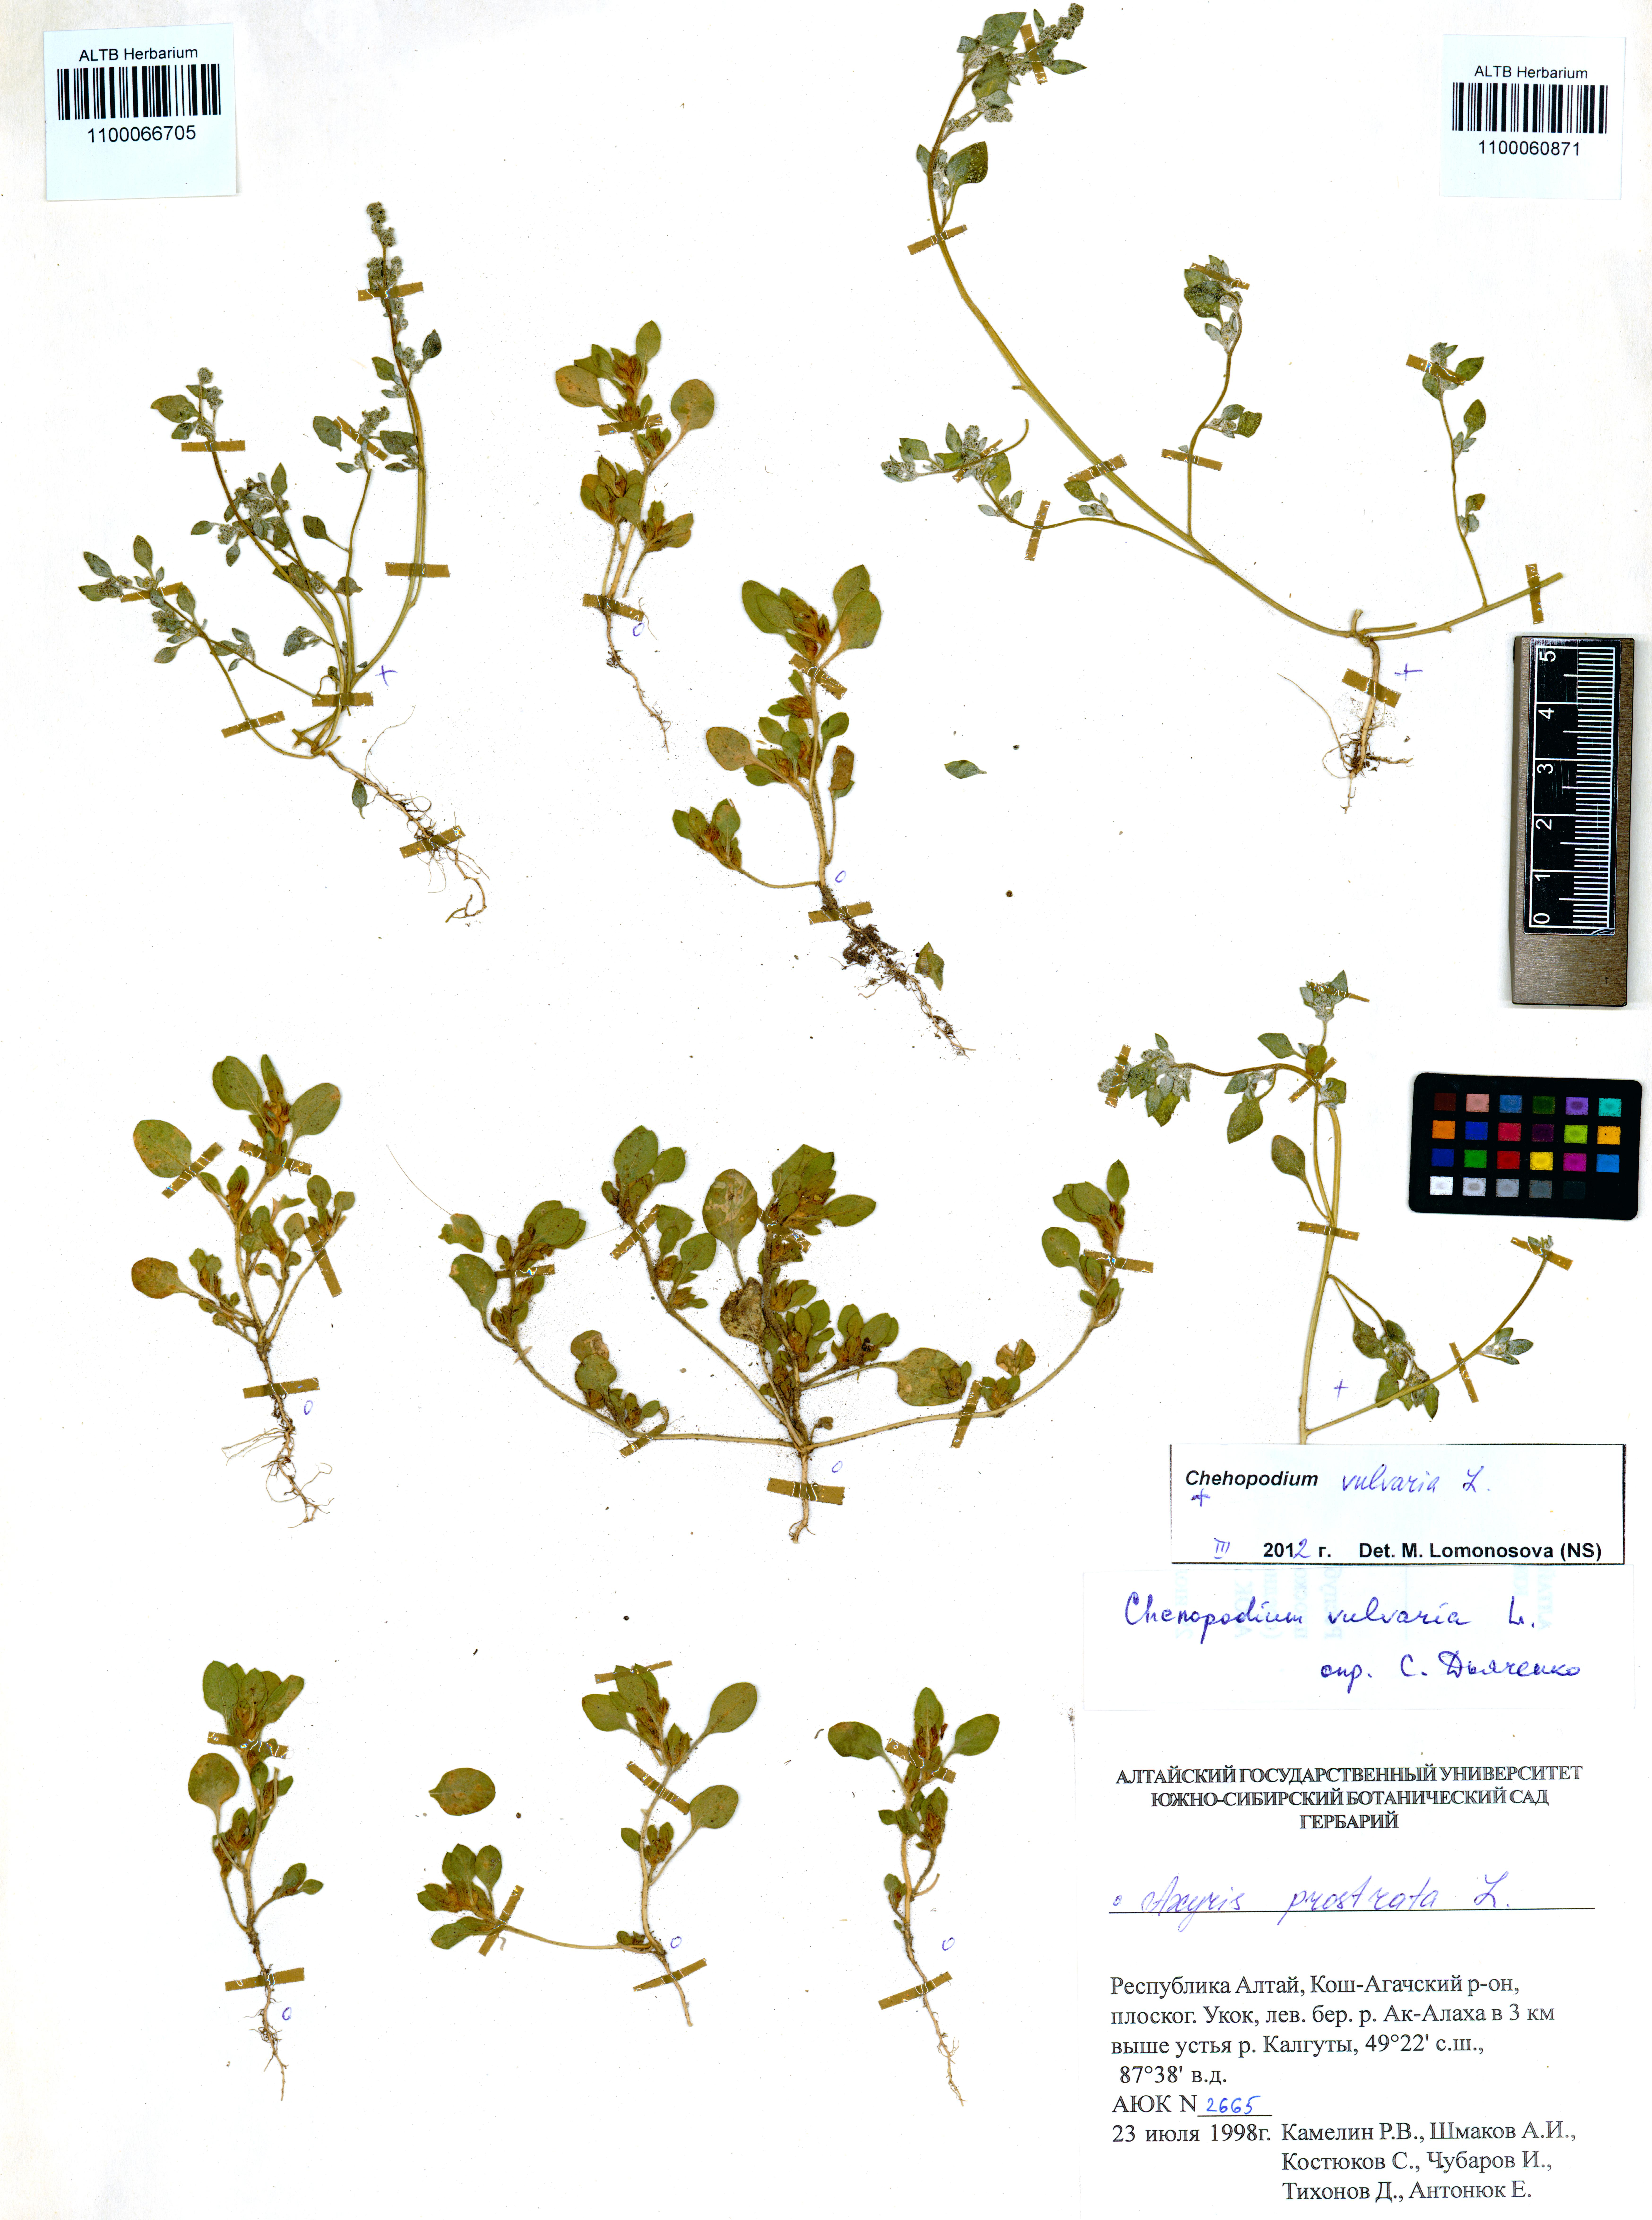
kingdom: Plantae
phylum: Tracheophyta
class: Magnoliopsida
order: Caryophyllales
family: Amaranthaceae
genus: Chenopodium
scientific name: Chenopodium vulvaria
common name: Stinking goosefoot
